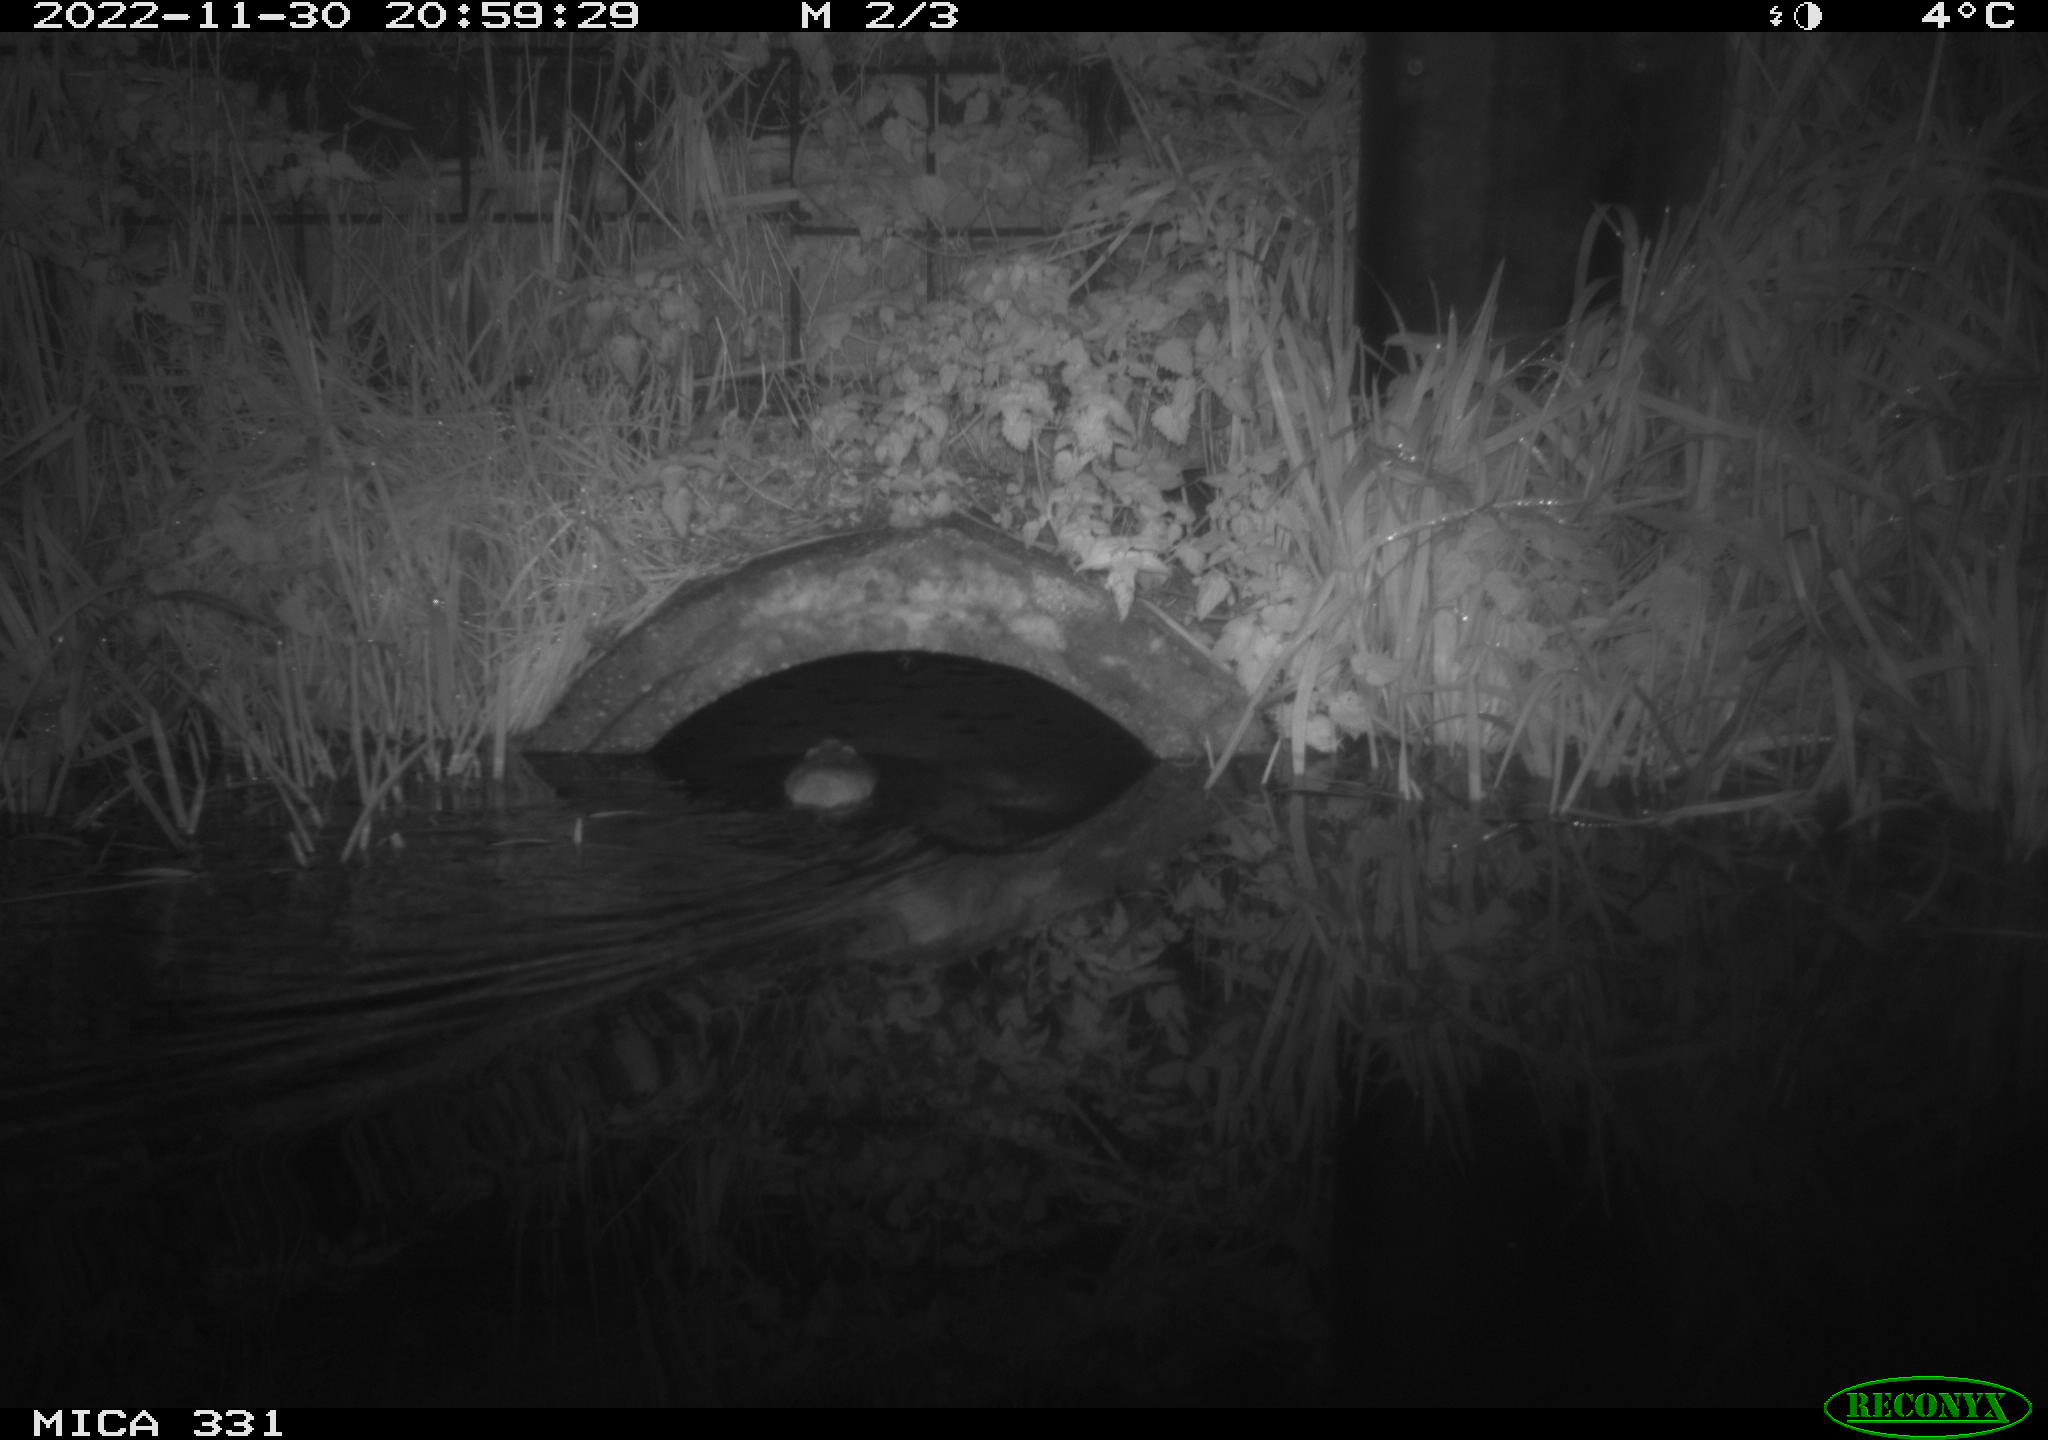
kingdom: Animalia
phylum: Chordata
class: Mammalia
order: Rodentia
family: Muridae
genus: Rattus
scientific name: Rattus norvegicus
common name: Brown rat
